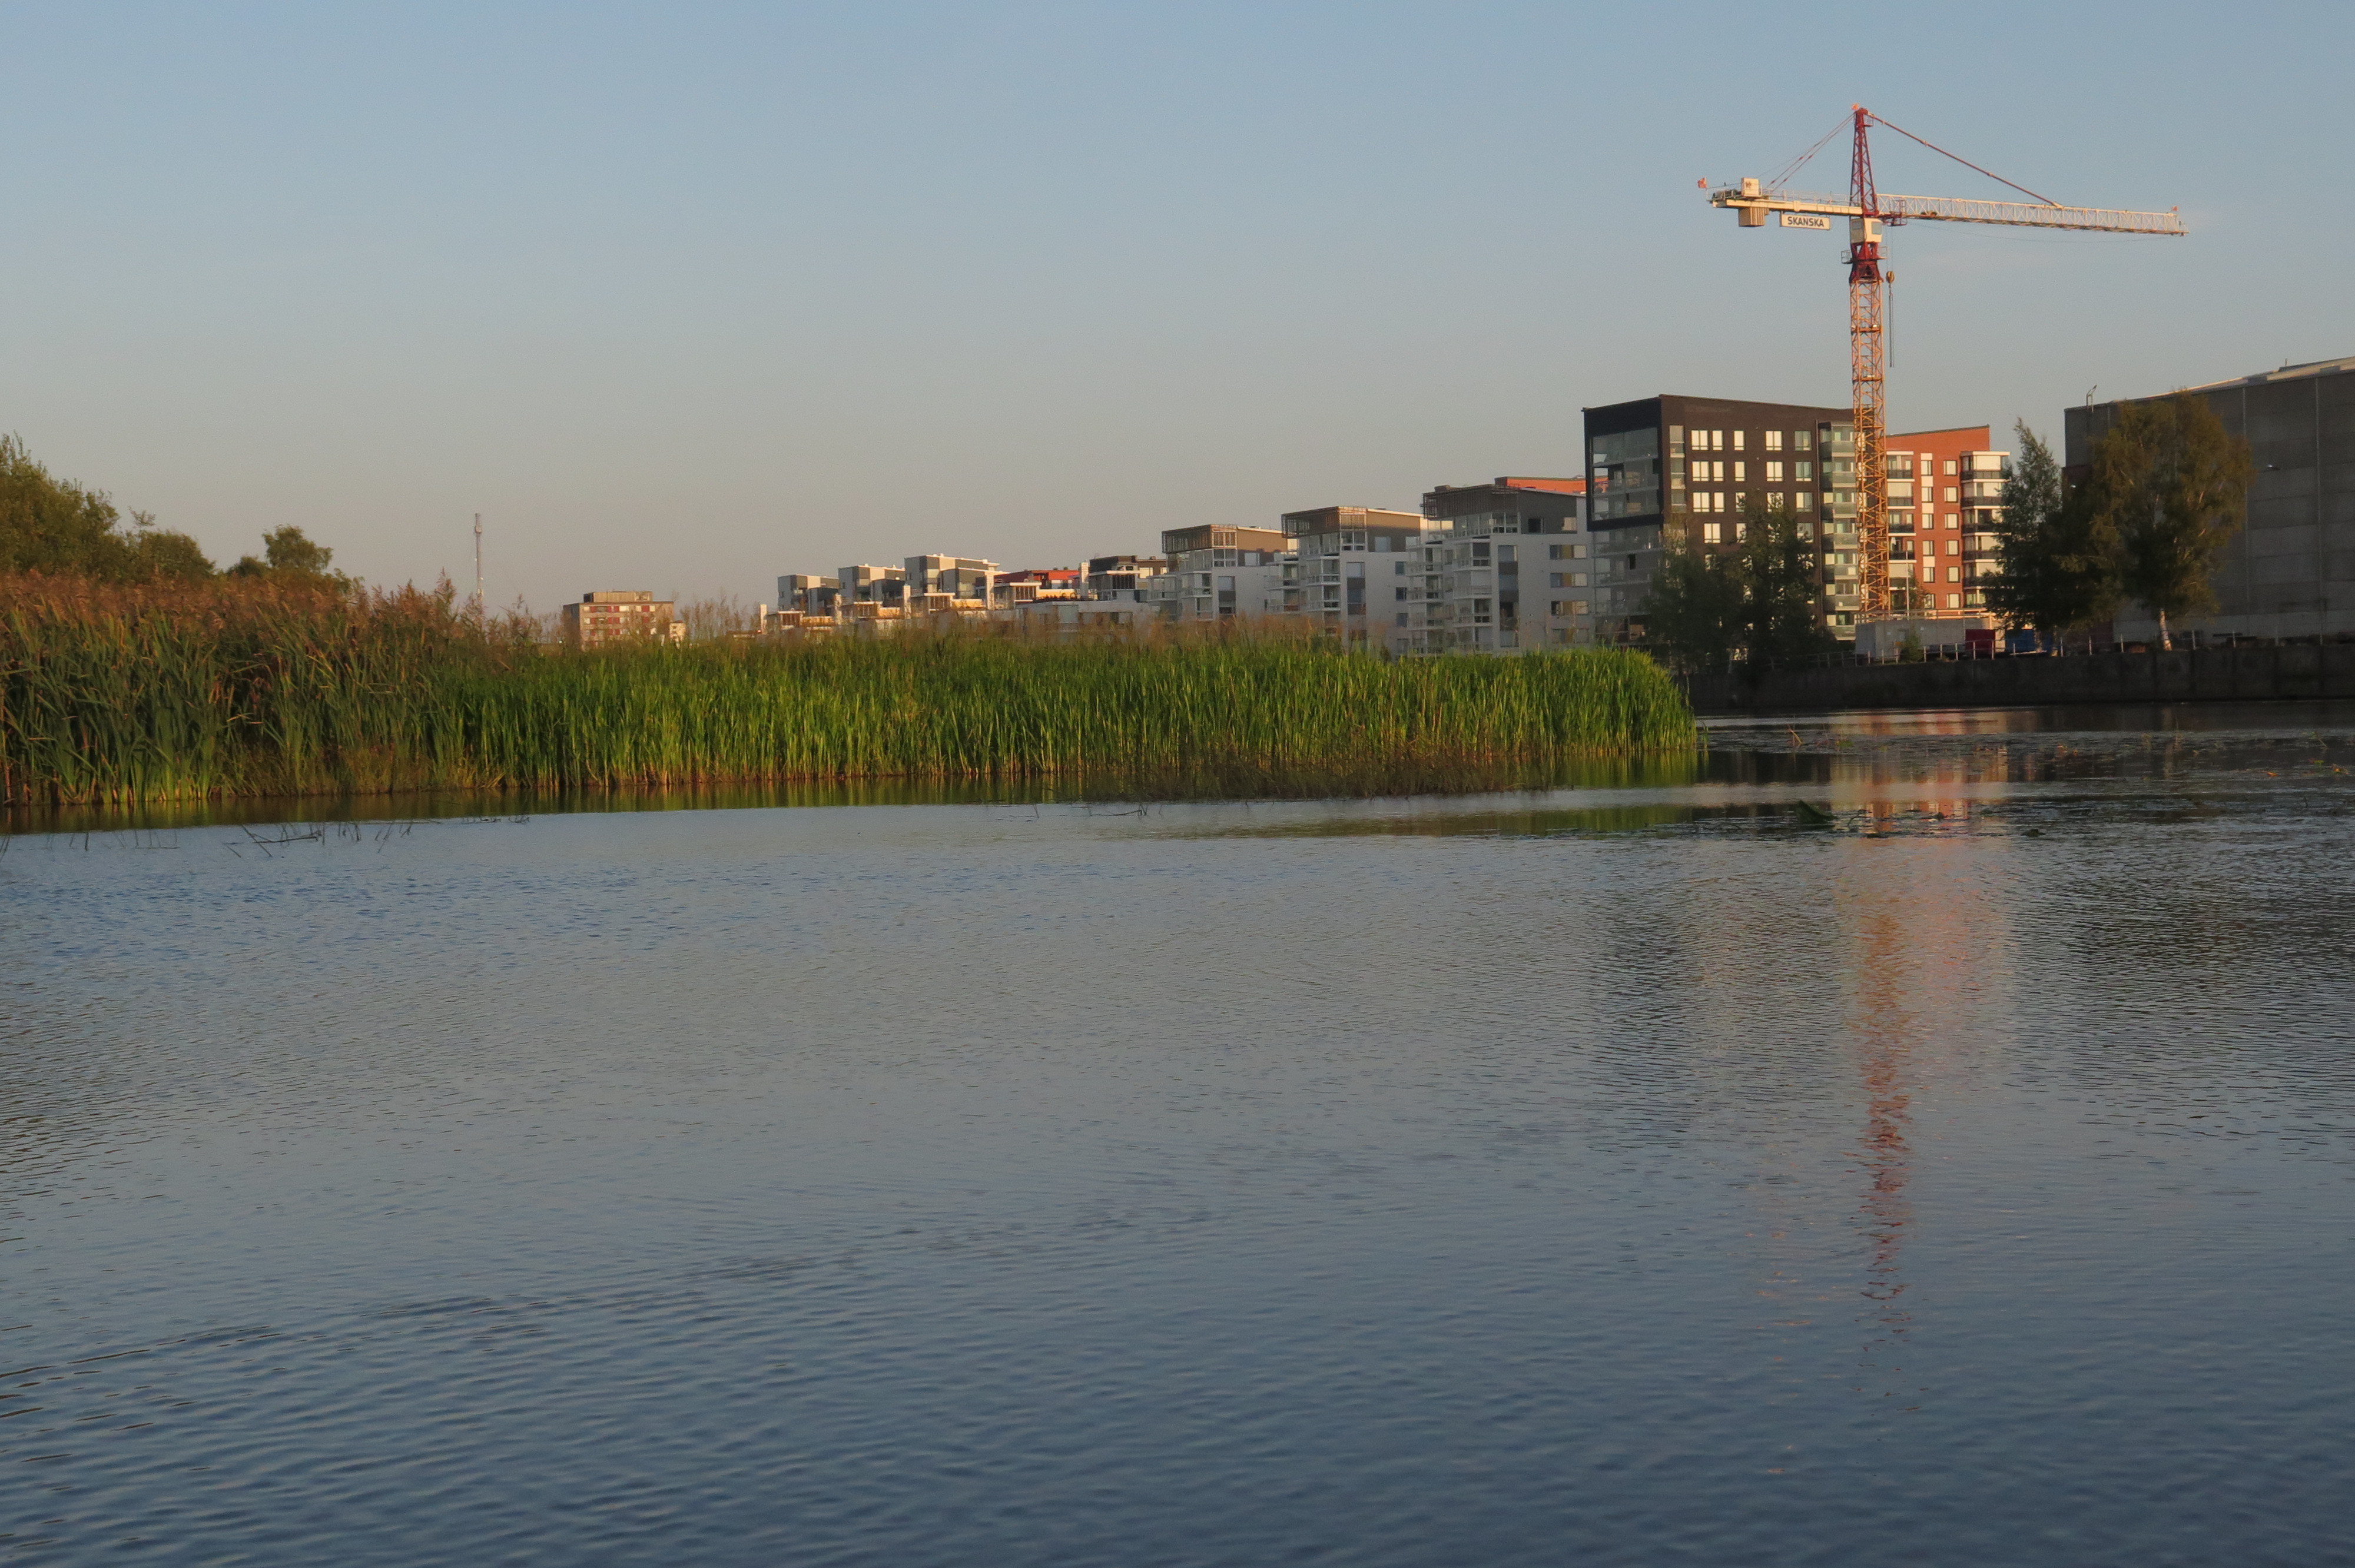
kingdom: Plantae
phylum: Tracheophyta
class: Liliopsida
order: Poales
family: Poaceae
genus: Glyceria
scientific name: Glyceria maxima
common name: Reed mannagrass
